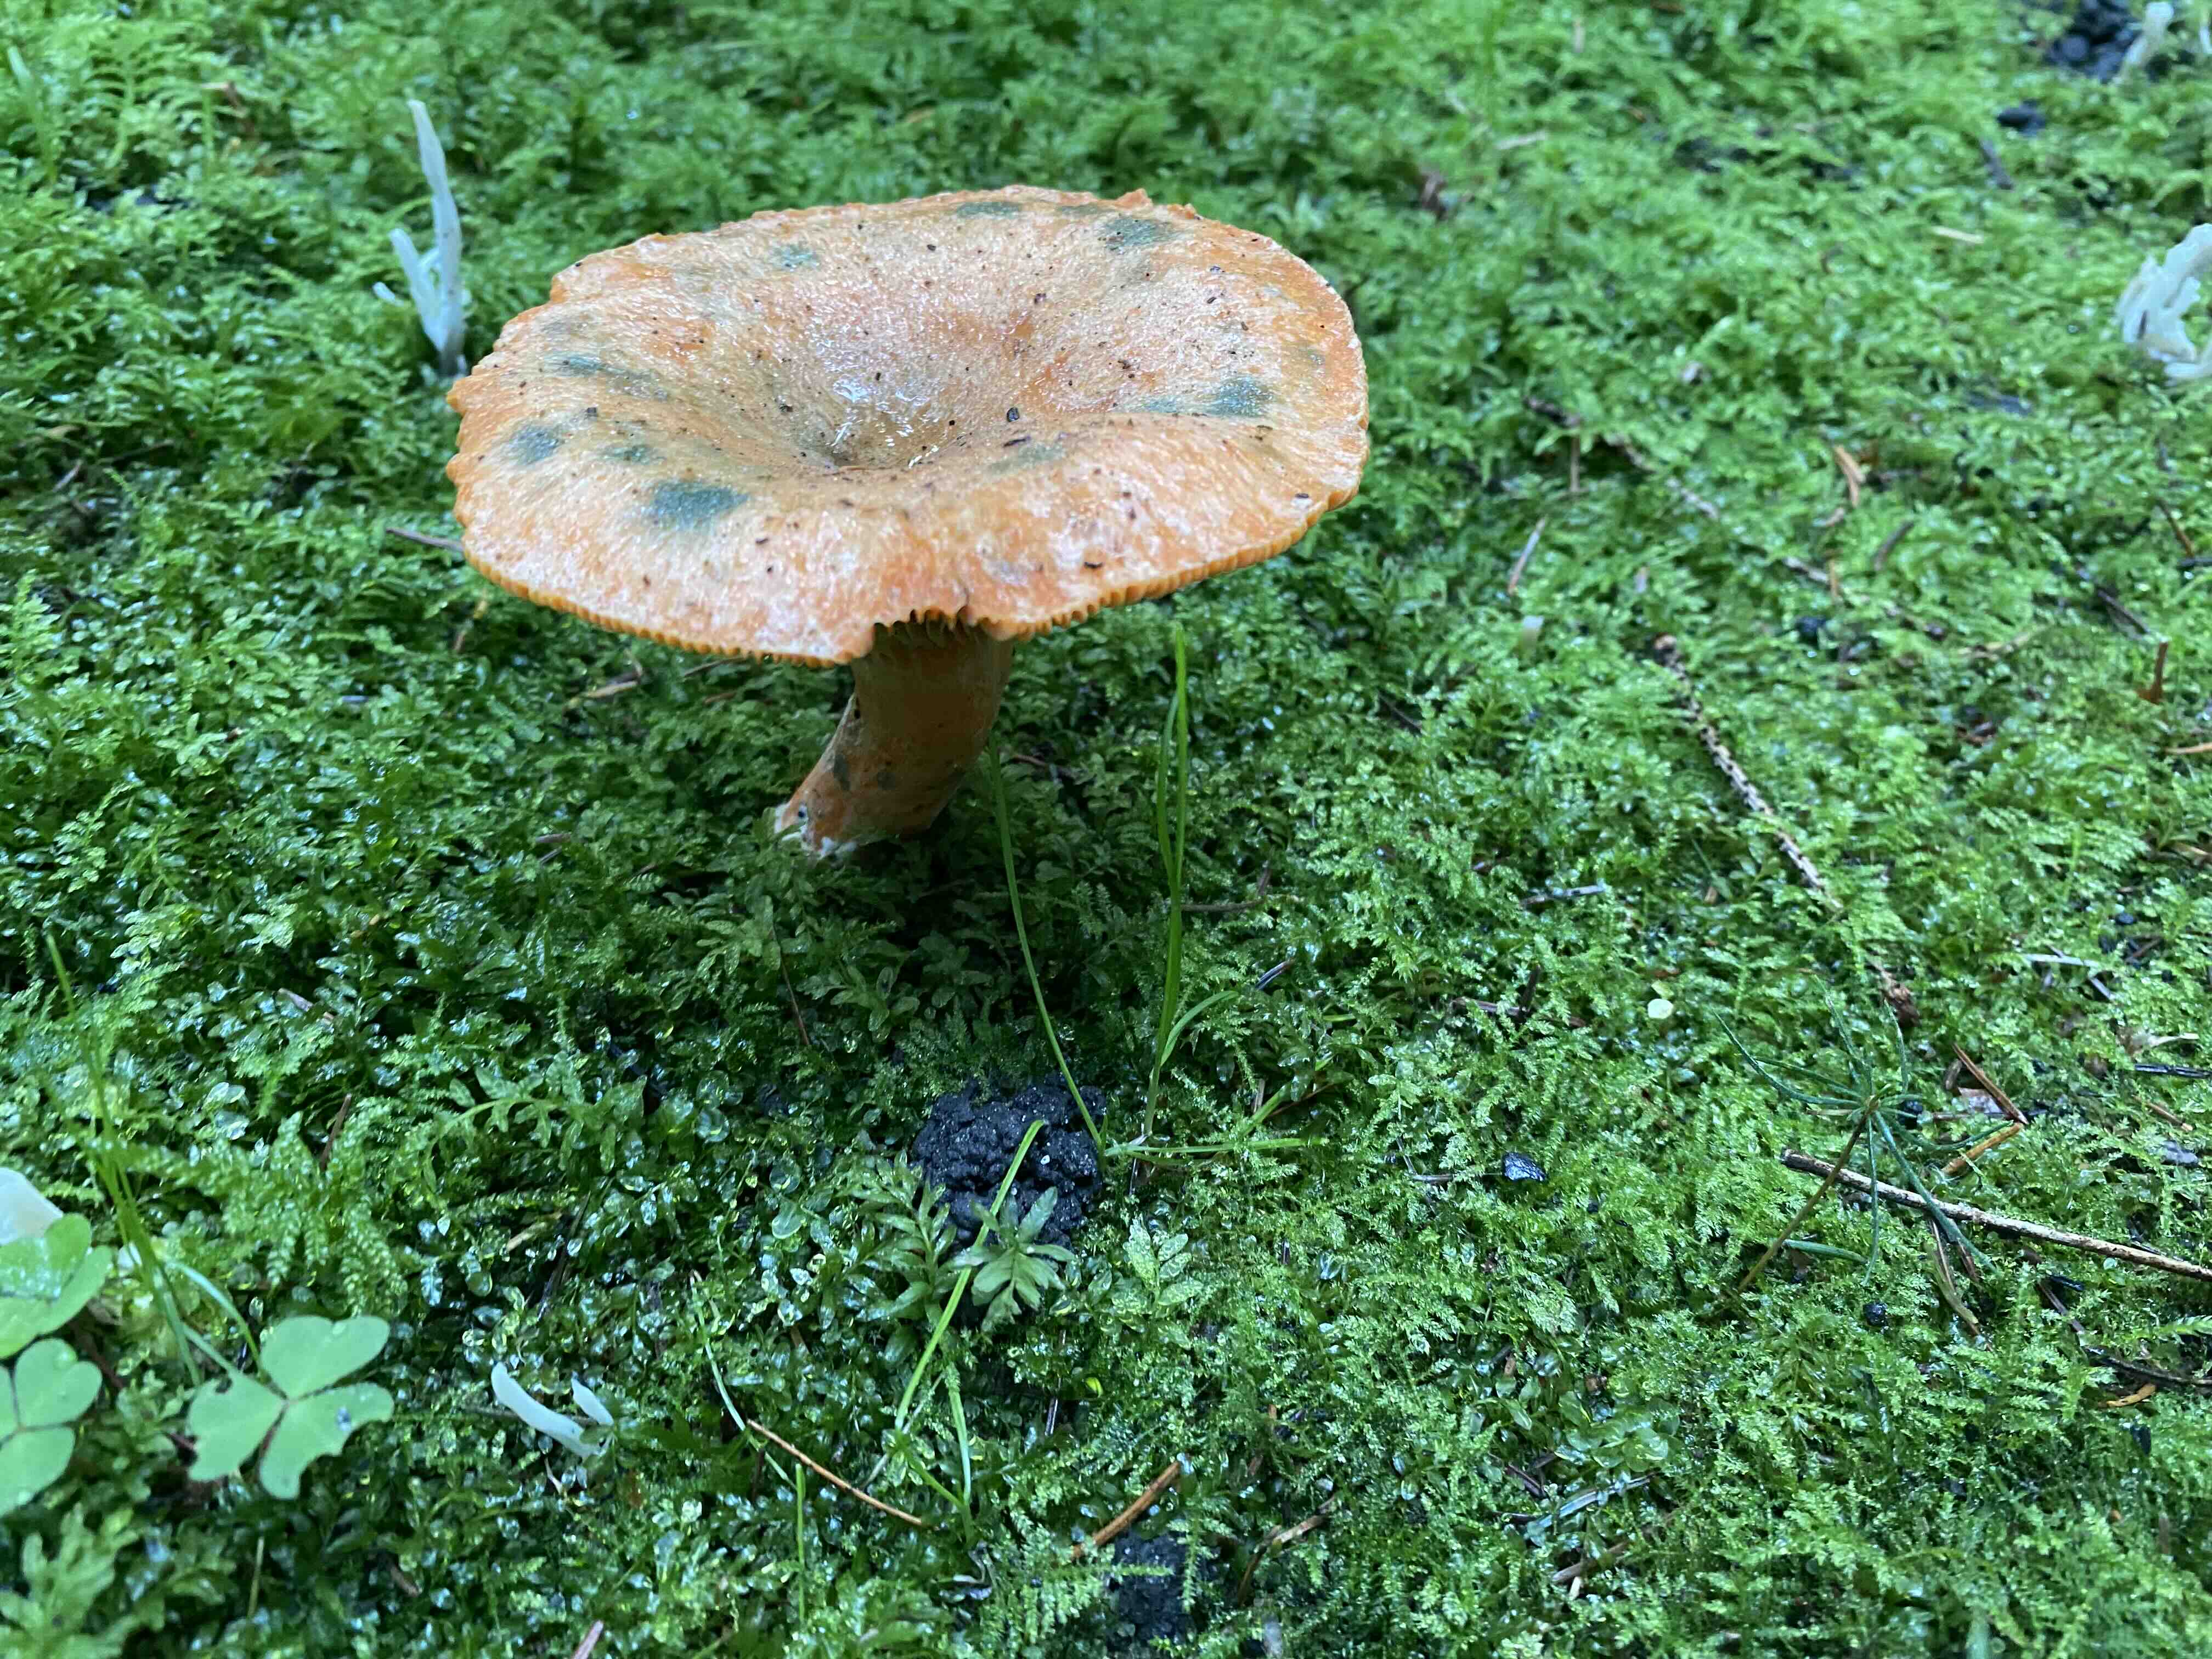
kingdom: Fungi
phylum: Basidiomycota
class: Agaricomycetes
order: Russulales
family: Russulaceae
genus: Lactarius
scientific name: Lactarius deterrimus
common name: gran-mælkehat
